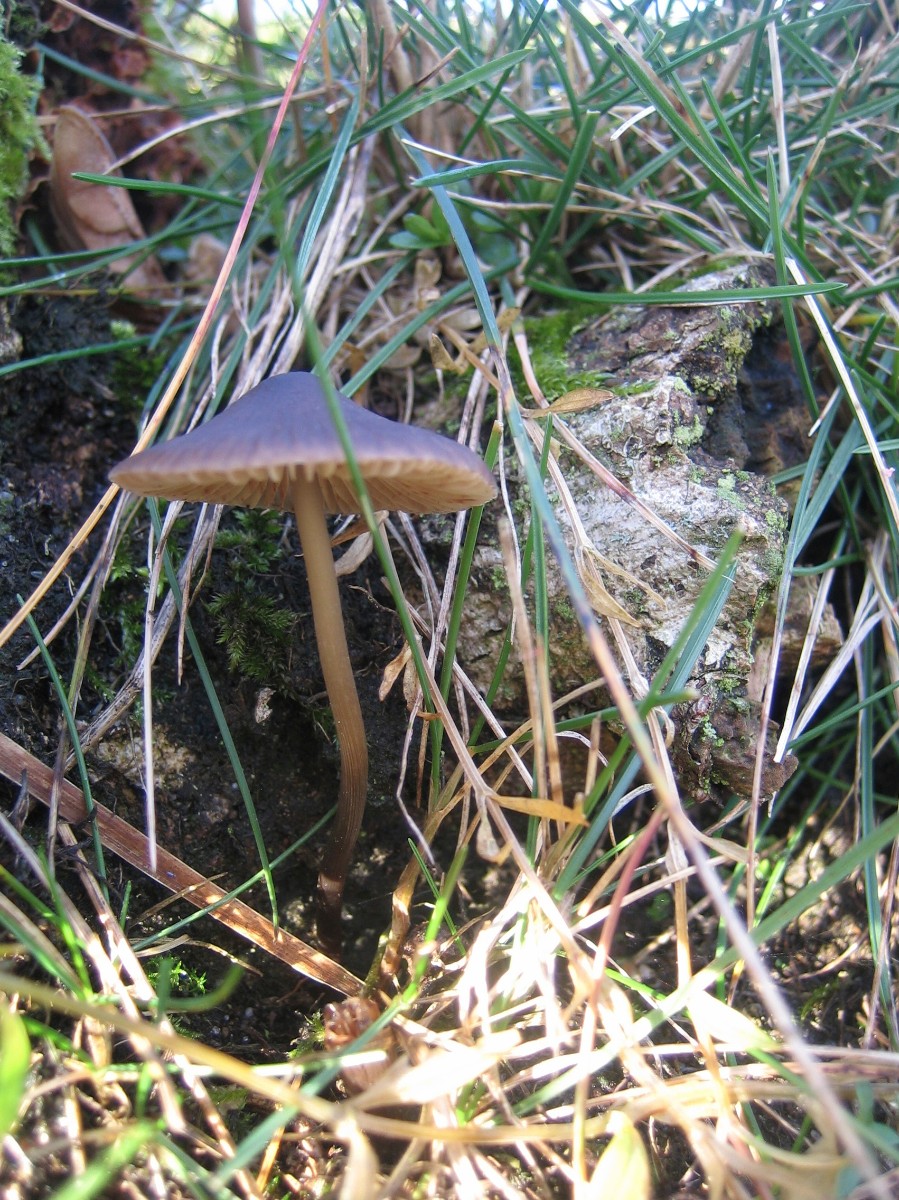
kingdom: Fungi
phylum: Basidiomycota
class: Agaricomycetes
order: Agaricales
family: Mycenaceae
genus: Mycena
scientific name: Mycena polygramma
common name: mangestribet huesvamp
